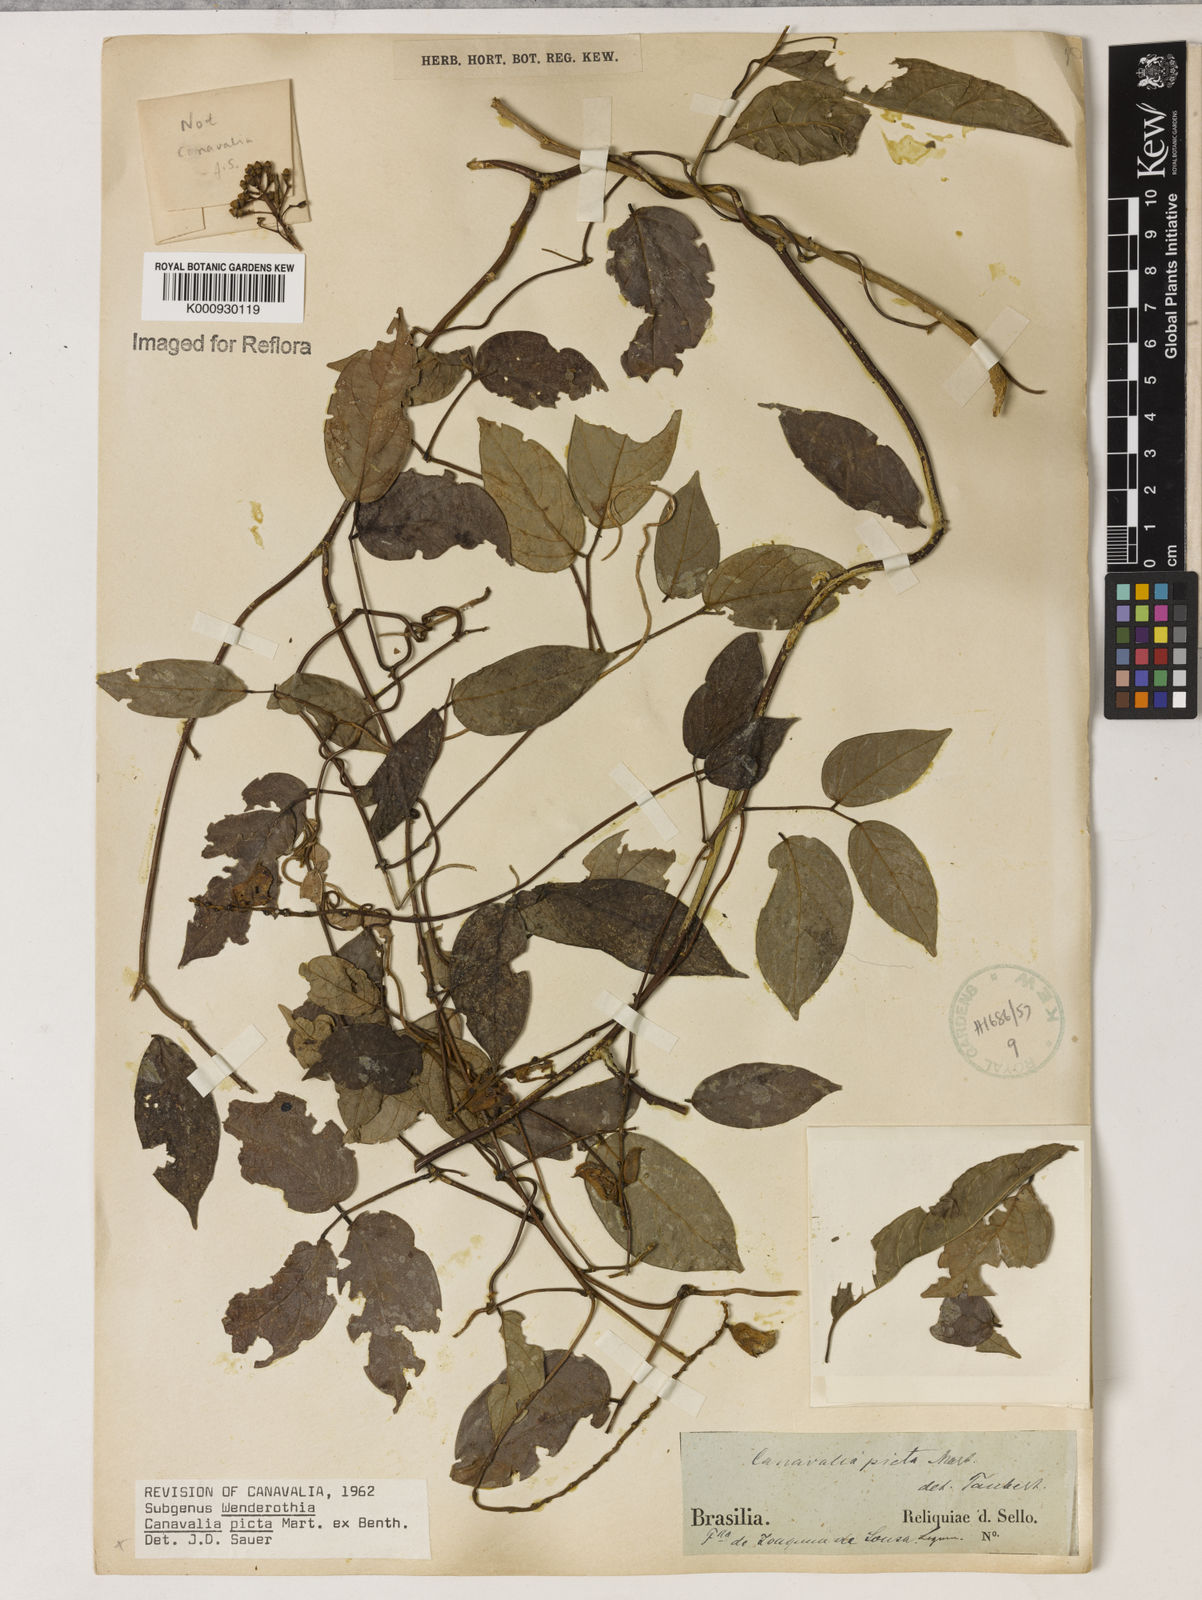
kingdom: Plantae
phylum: Tracheophyta
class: Magnoliopsida
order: Fabales
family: Fabaceae
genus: Canavalia
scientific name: Canavalia picta
